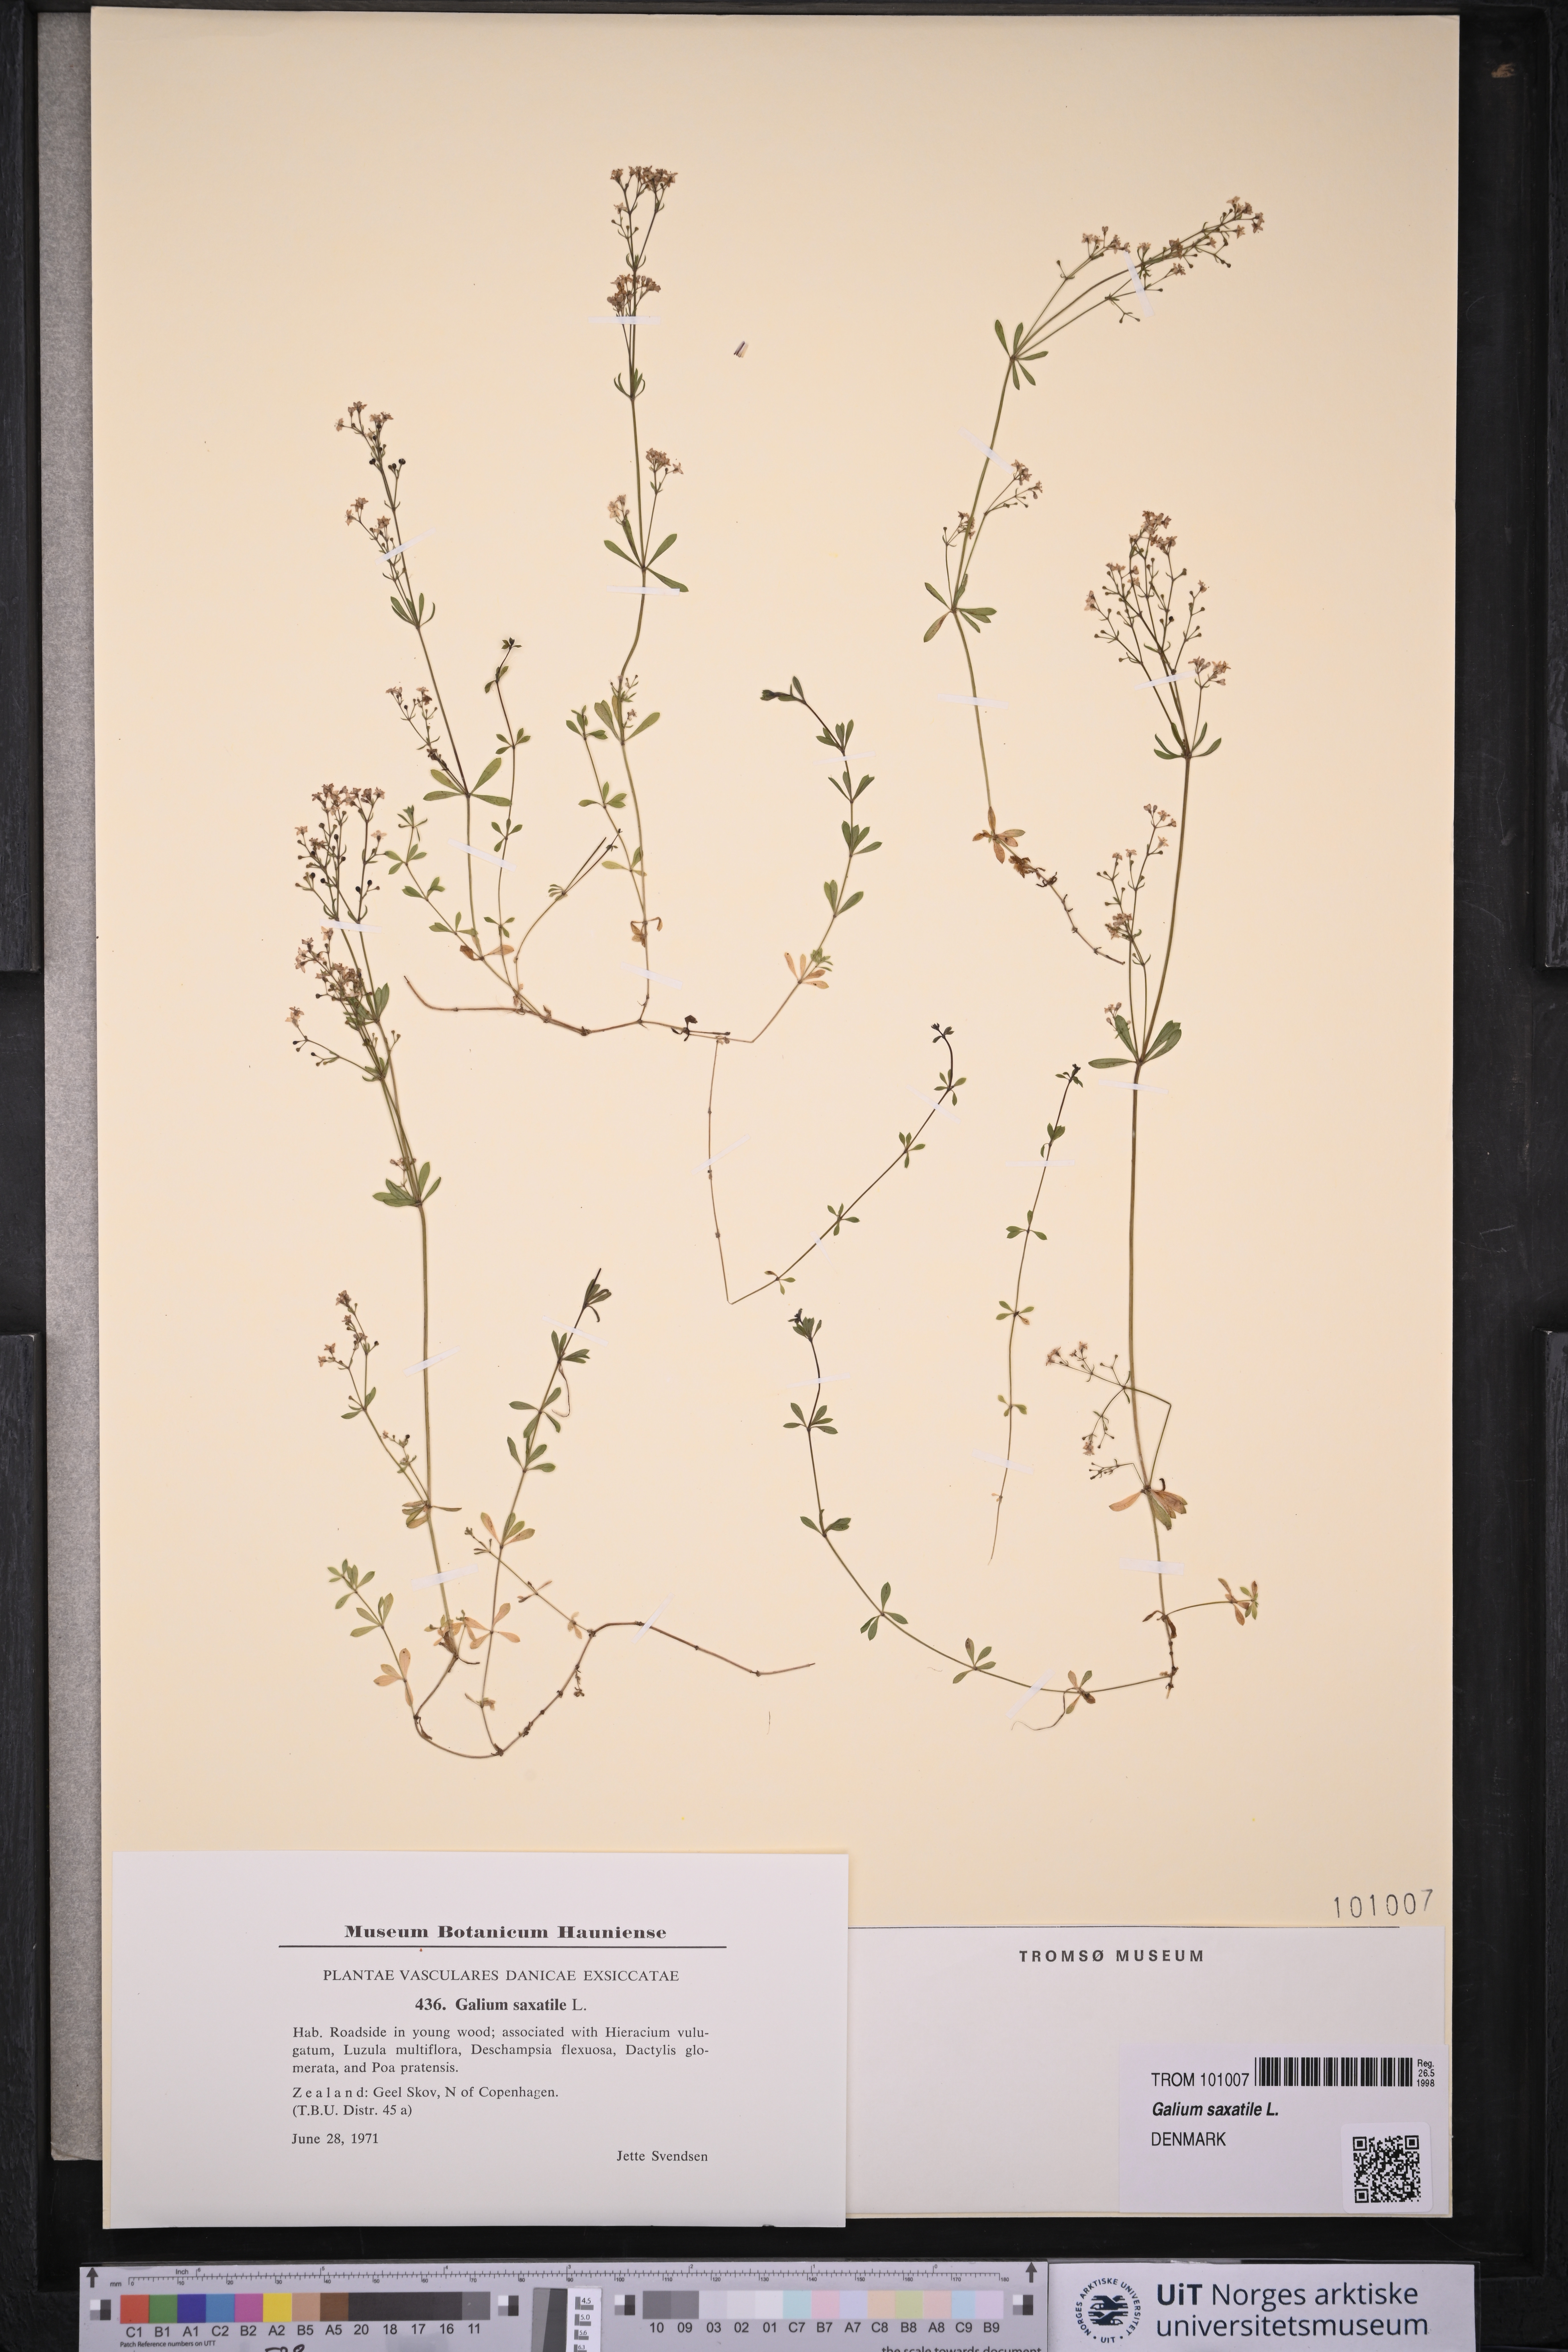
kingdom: Plantae
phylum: Tracheophyta
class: Magnoliopsida
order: Gentianales
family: Rubiaceae
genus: Galium
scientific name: Galium saxatile
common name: Heath bedstraw
